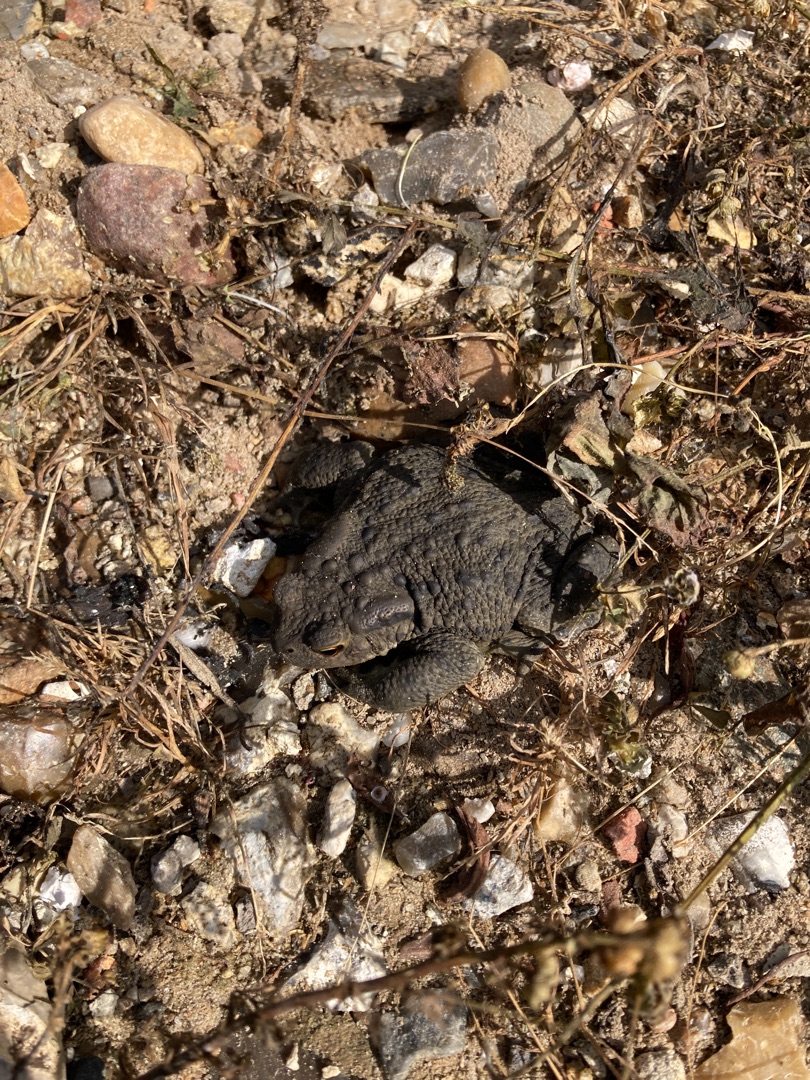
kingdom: Animalia
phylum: Chordata
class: Amphibia
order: Anura
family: Bufonidae
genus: Bufo
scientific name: Bufo bufo
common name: Skrubtudse
